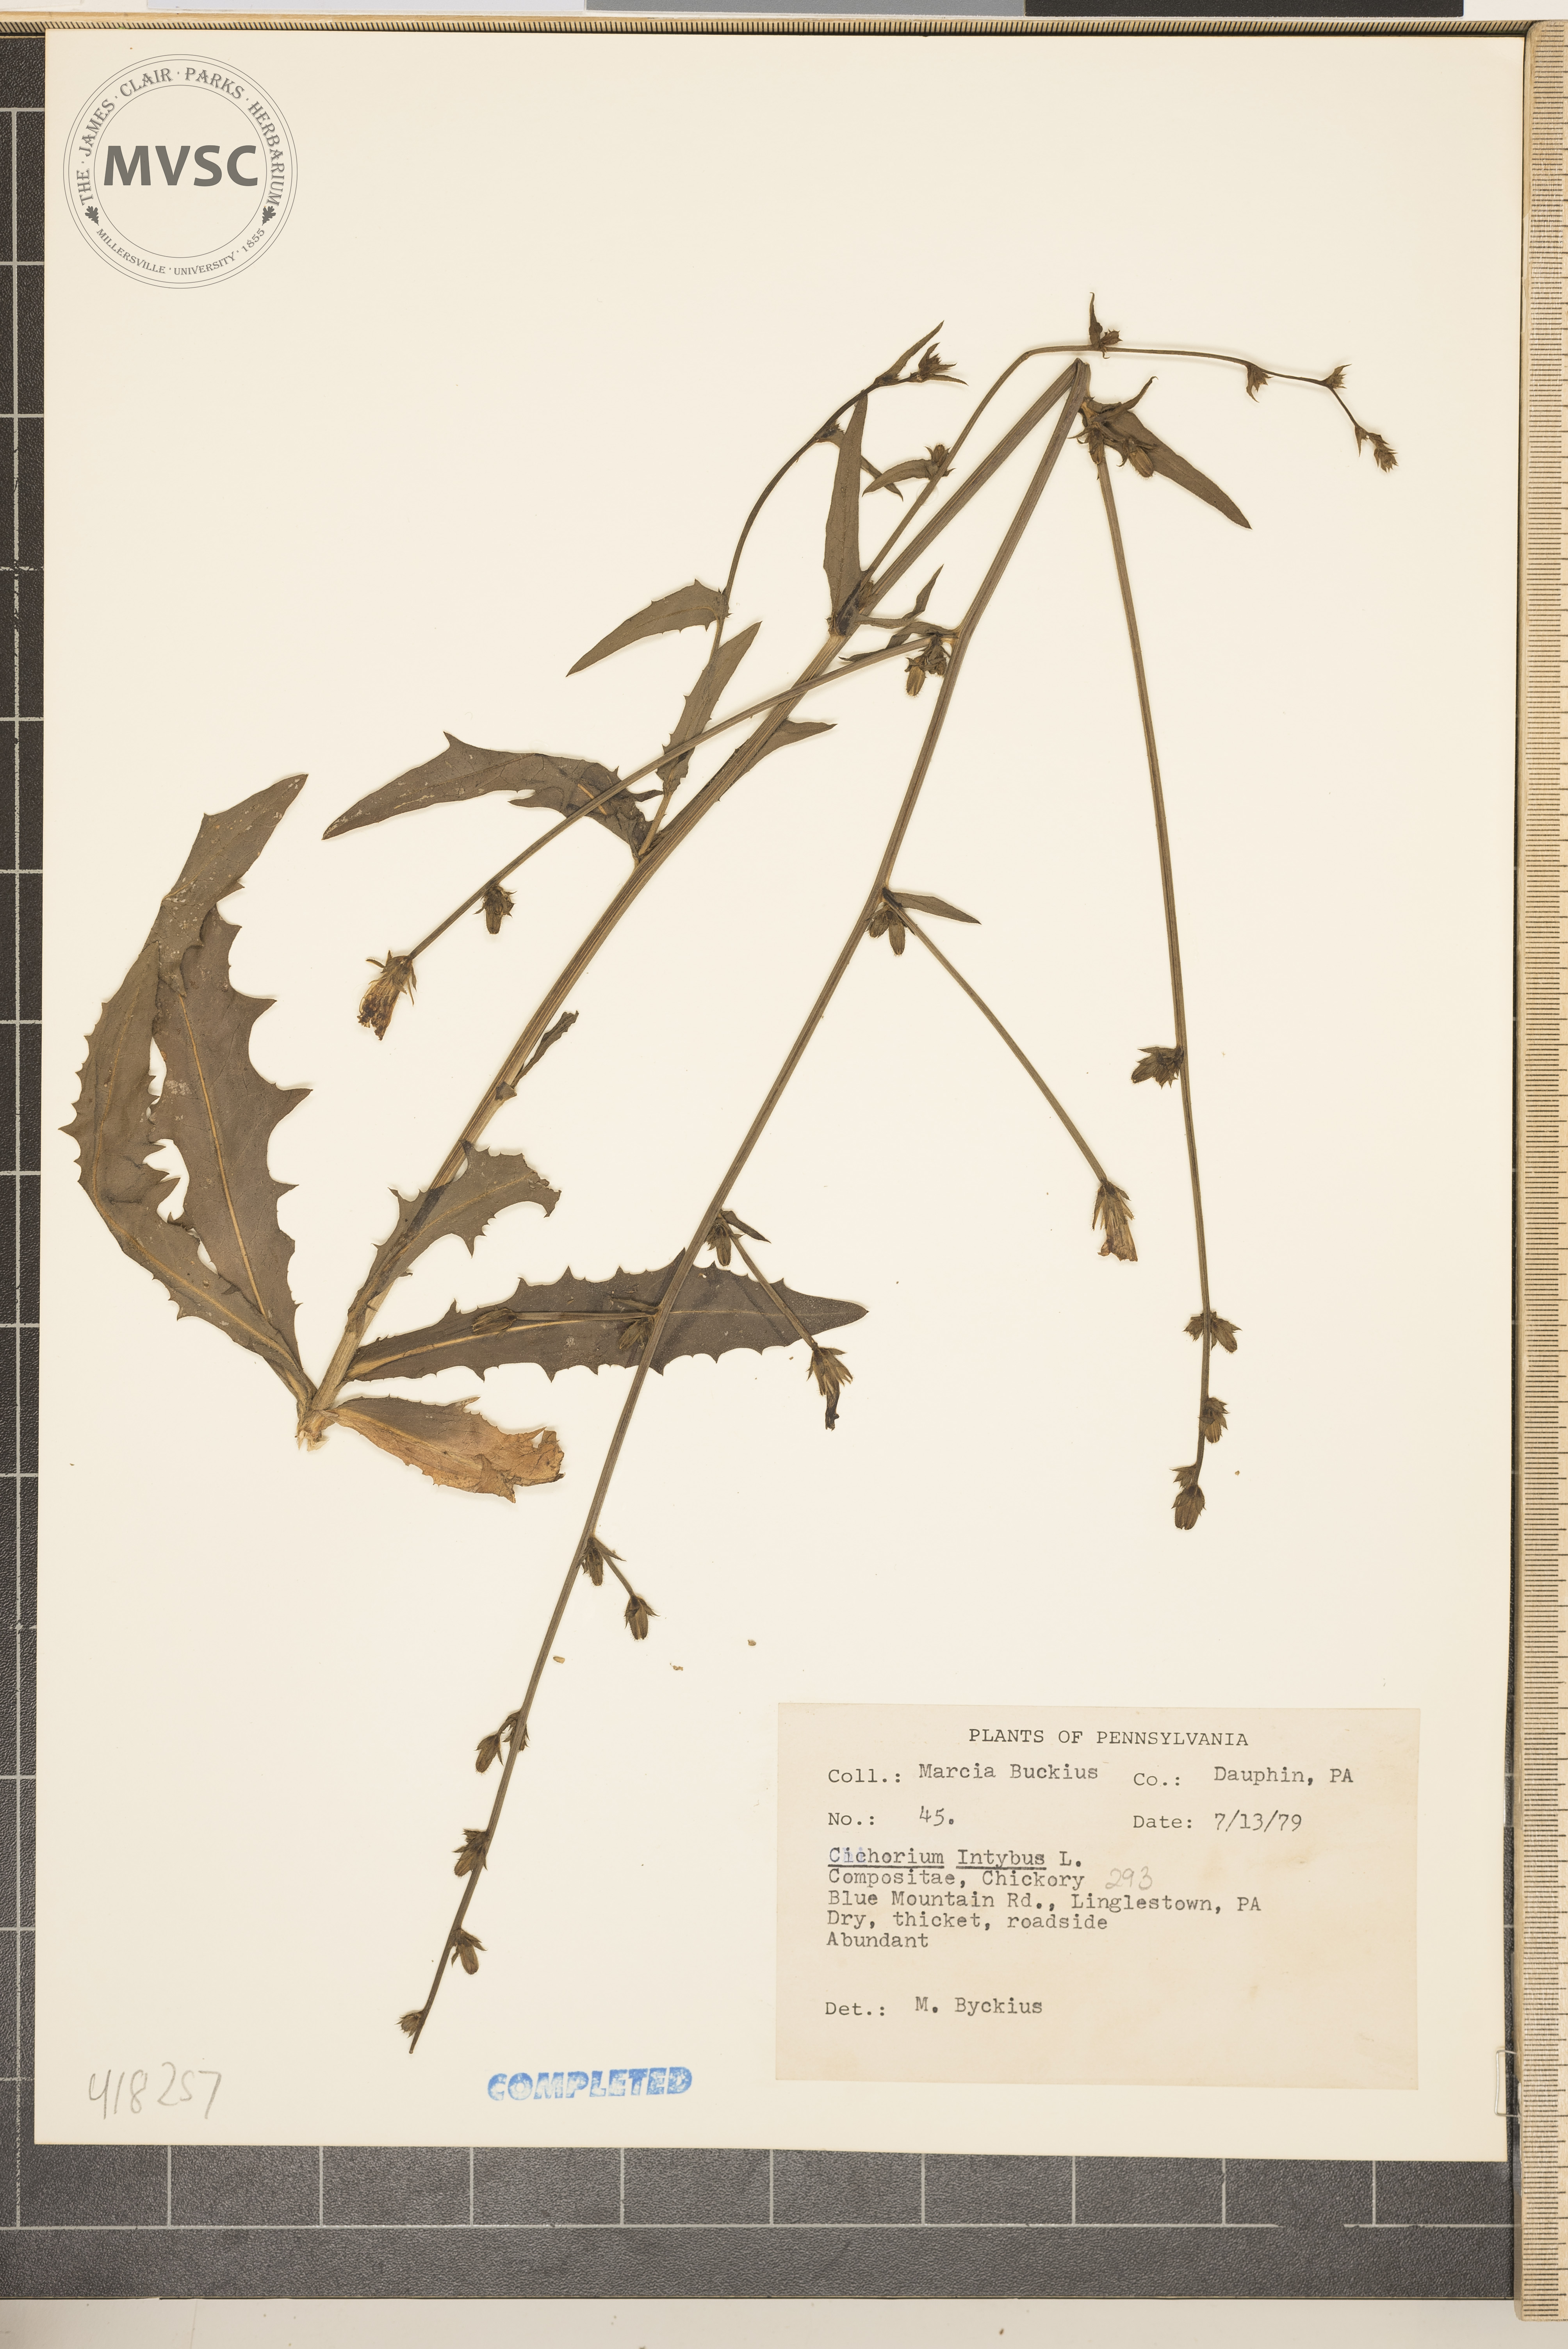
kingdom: Plantae
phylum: Tracheophyta
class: Magnoliopsida
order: Asterales
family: Asteraceae
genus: Cichorium
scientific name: Cichorium intybus
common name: Common chicory
